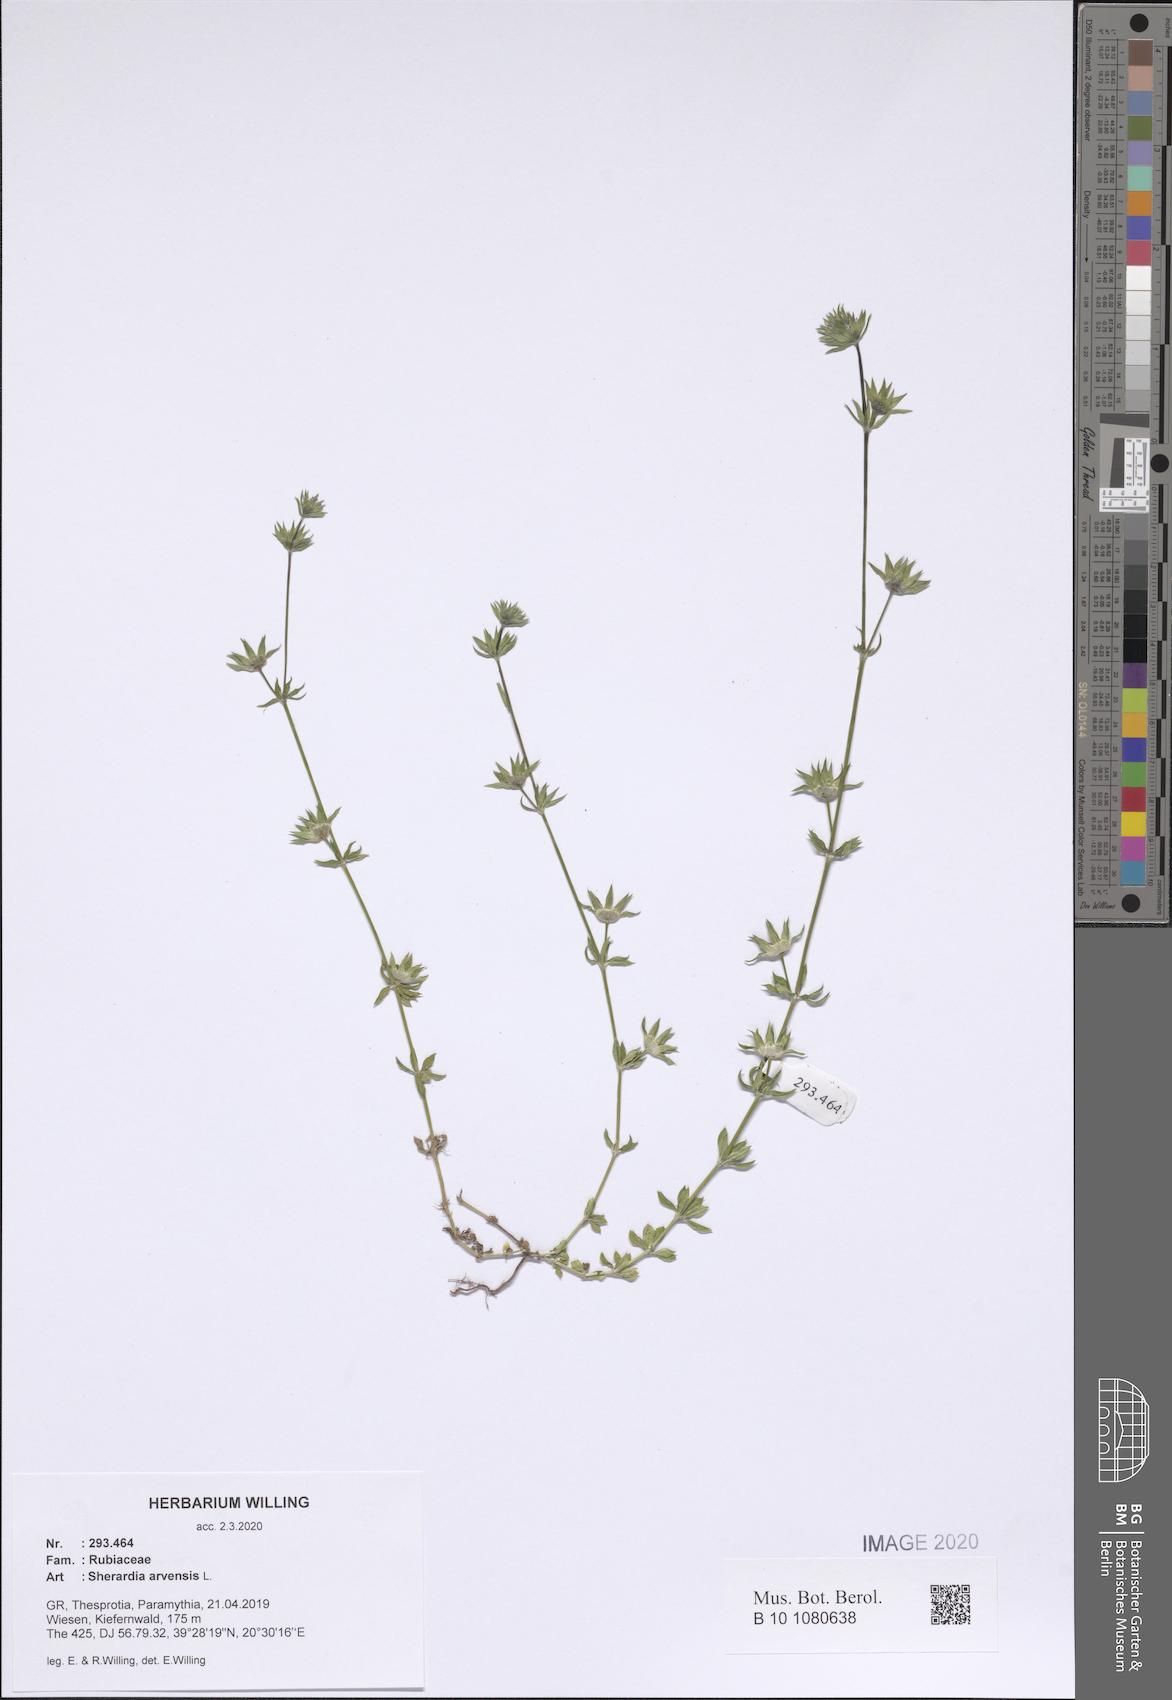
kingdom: Plantae
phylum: Tracheophyta
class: Magnoliopsida
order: Gentianales
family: Rubiaceae
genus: Sherardia
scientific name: Sherardia arvensis
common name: Field madder
